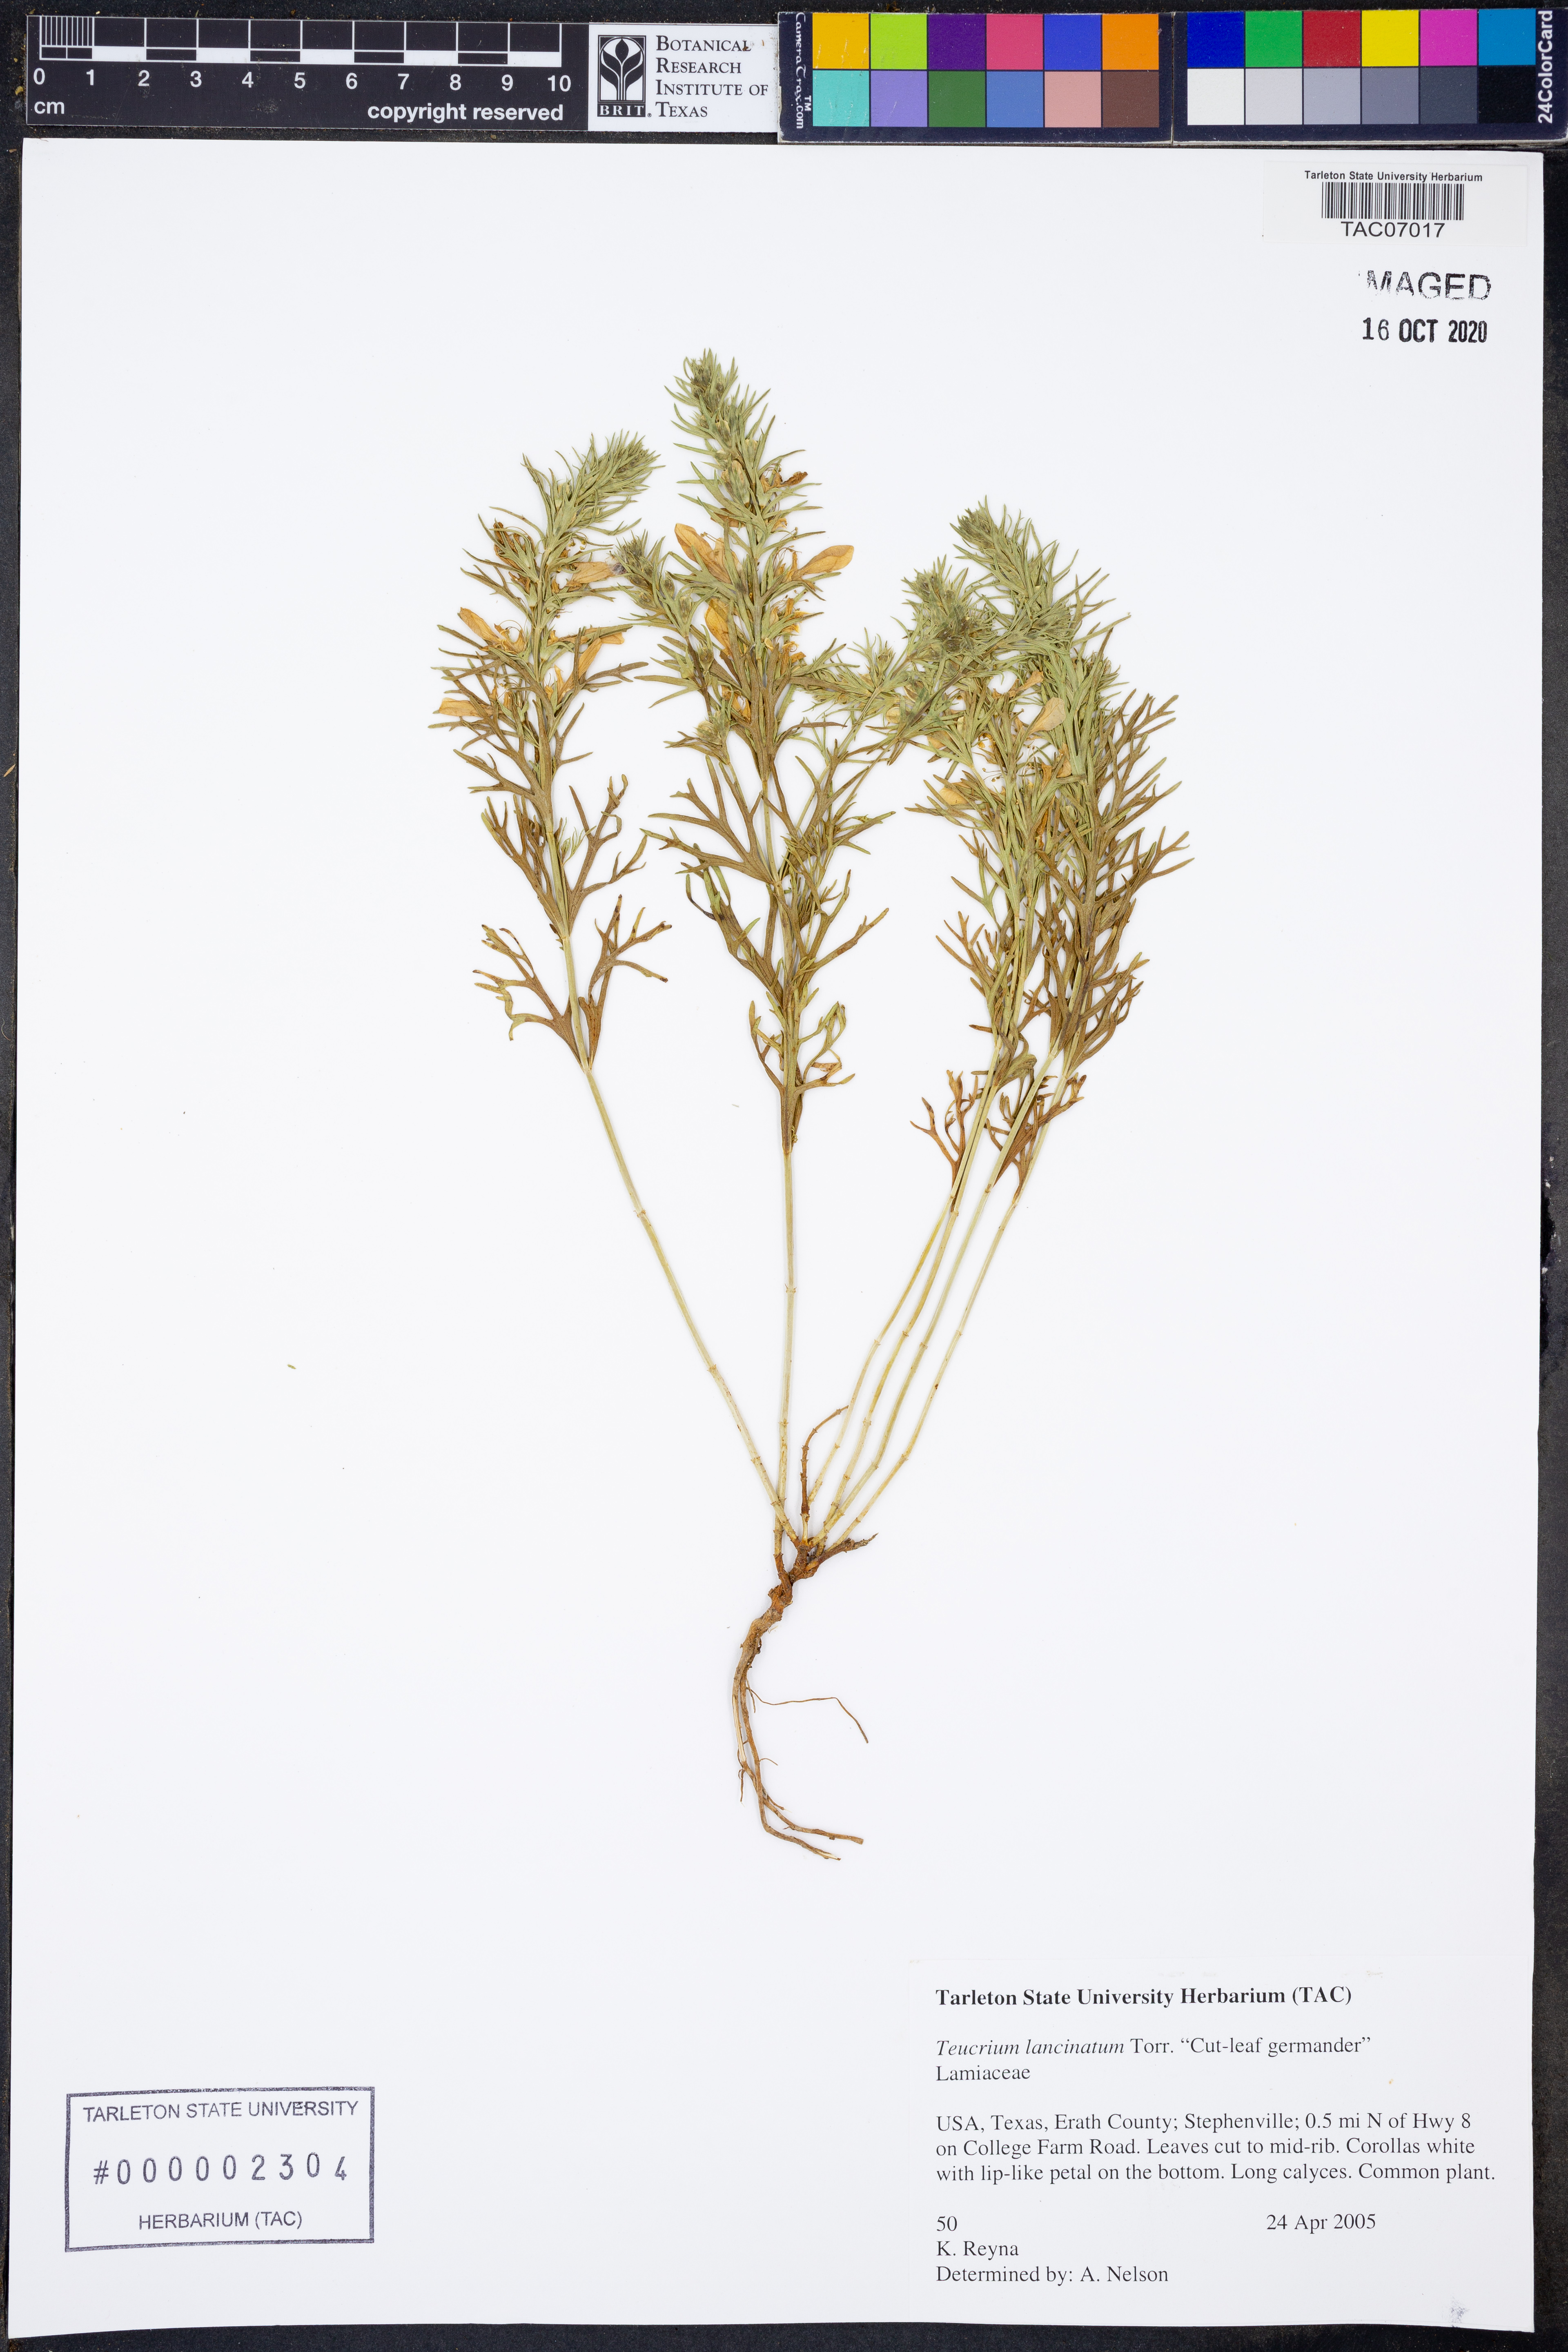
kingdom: Plantae
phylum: Tracheophyta
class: Magnoliopsida
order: Lamiales
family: Lamiaceae
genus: Teucrium
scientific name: Teucrium laciniatum
